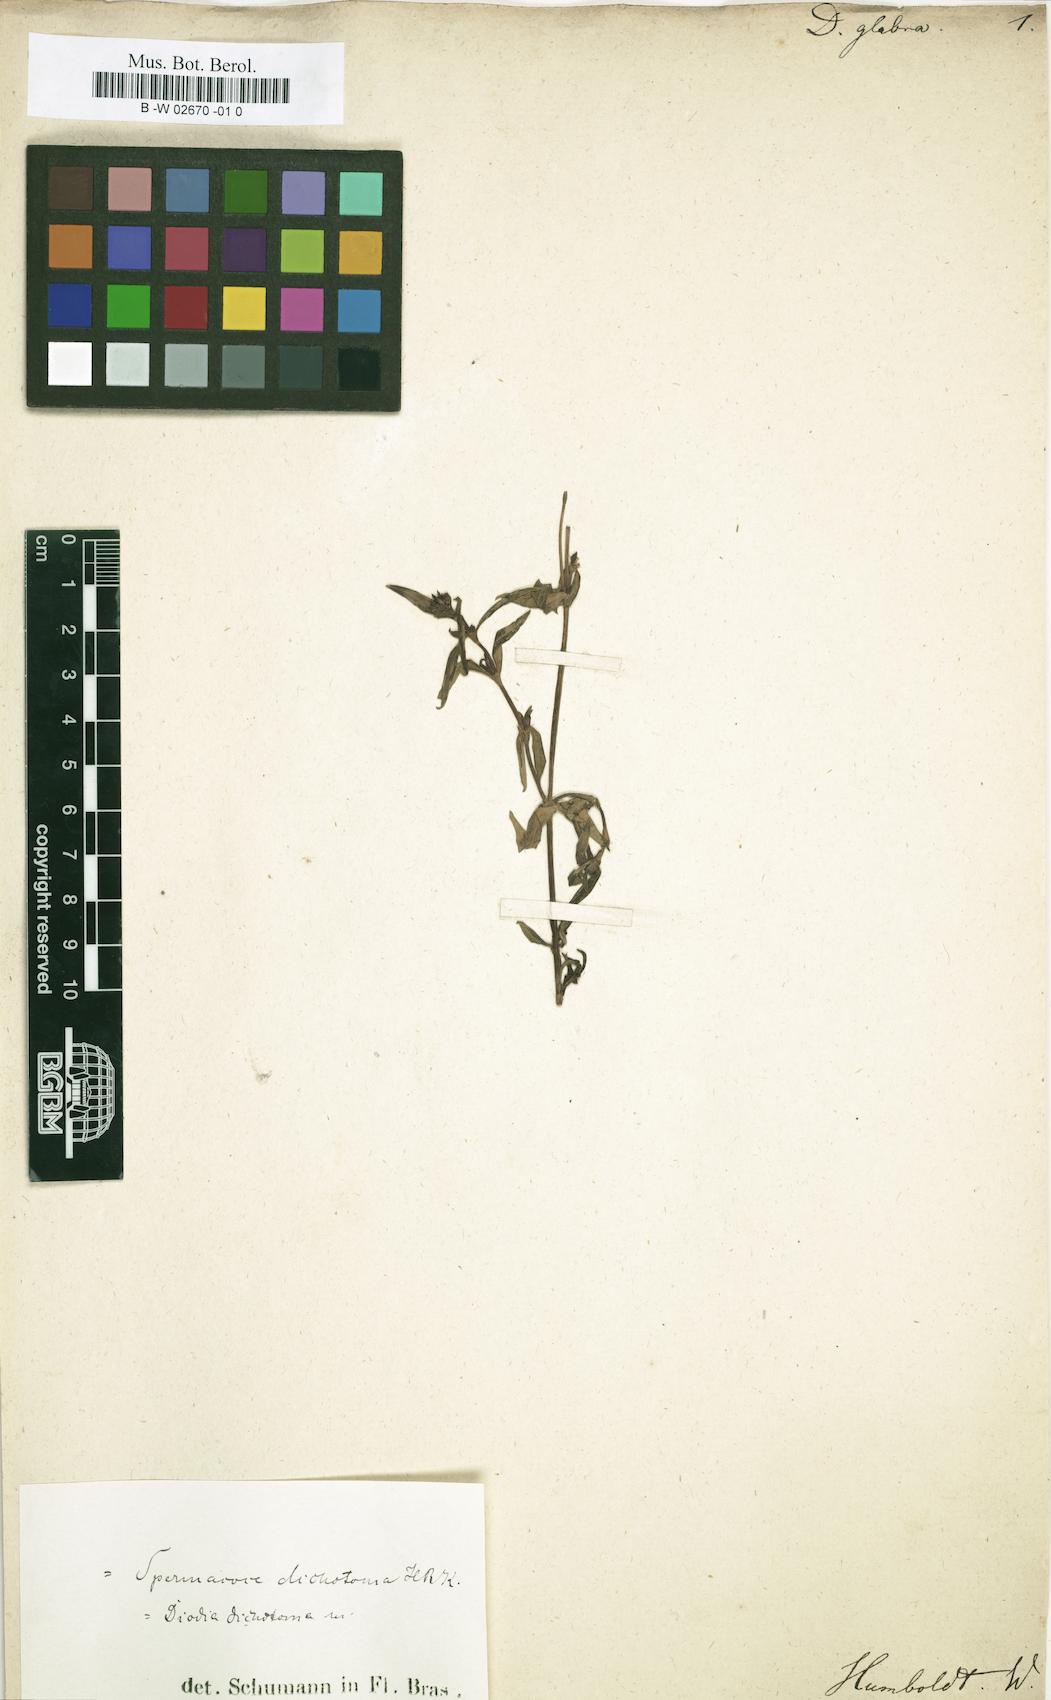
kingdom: Plantae
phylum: Tracheophyta
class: Magnoliopsida
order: Gentianales
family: Rubiaceae
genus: Galianthe
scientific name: Galianthe dichotoma
